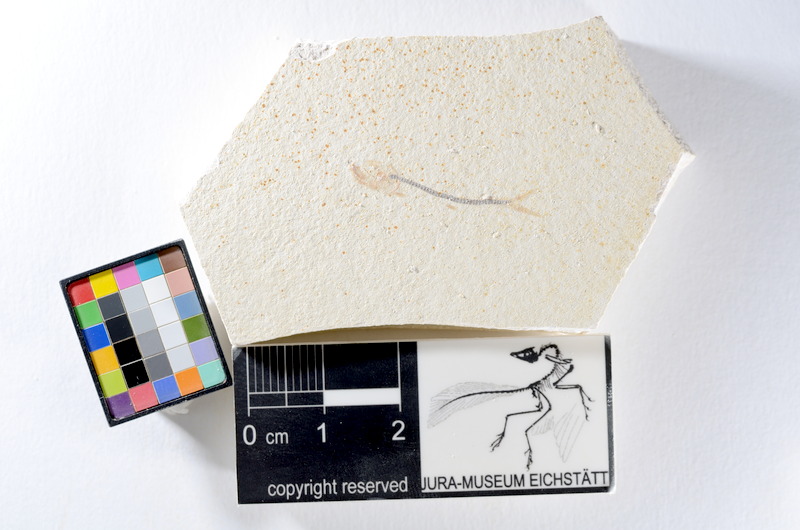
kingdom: Animalia
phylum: Chordata
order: Salmoniformes
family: Orthogonikleithridae
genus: Orthogonikleithrus
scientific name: Orthogonikleithrus hoelli
